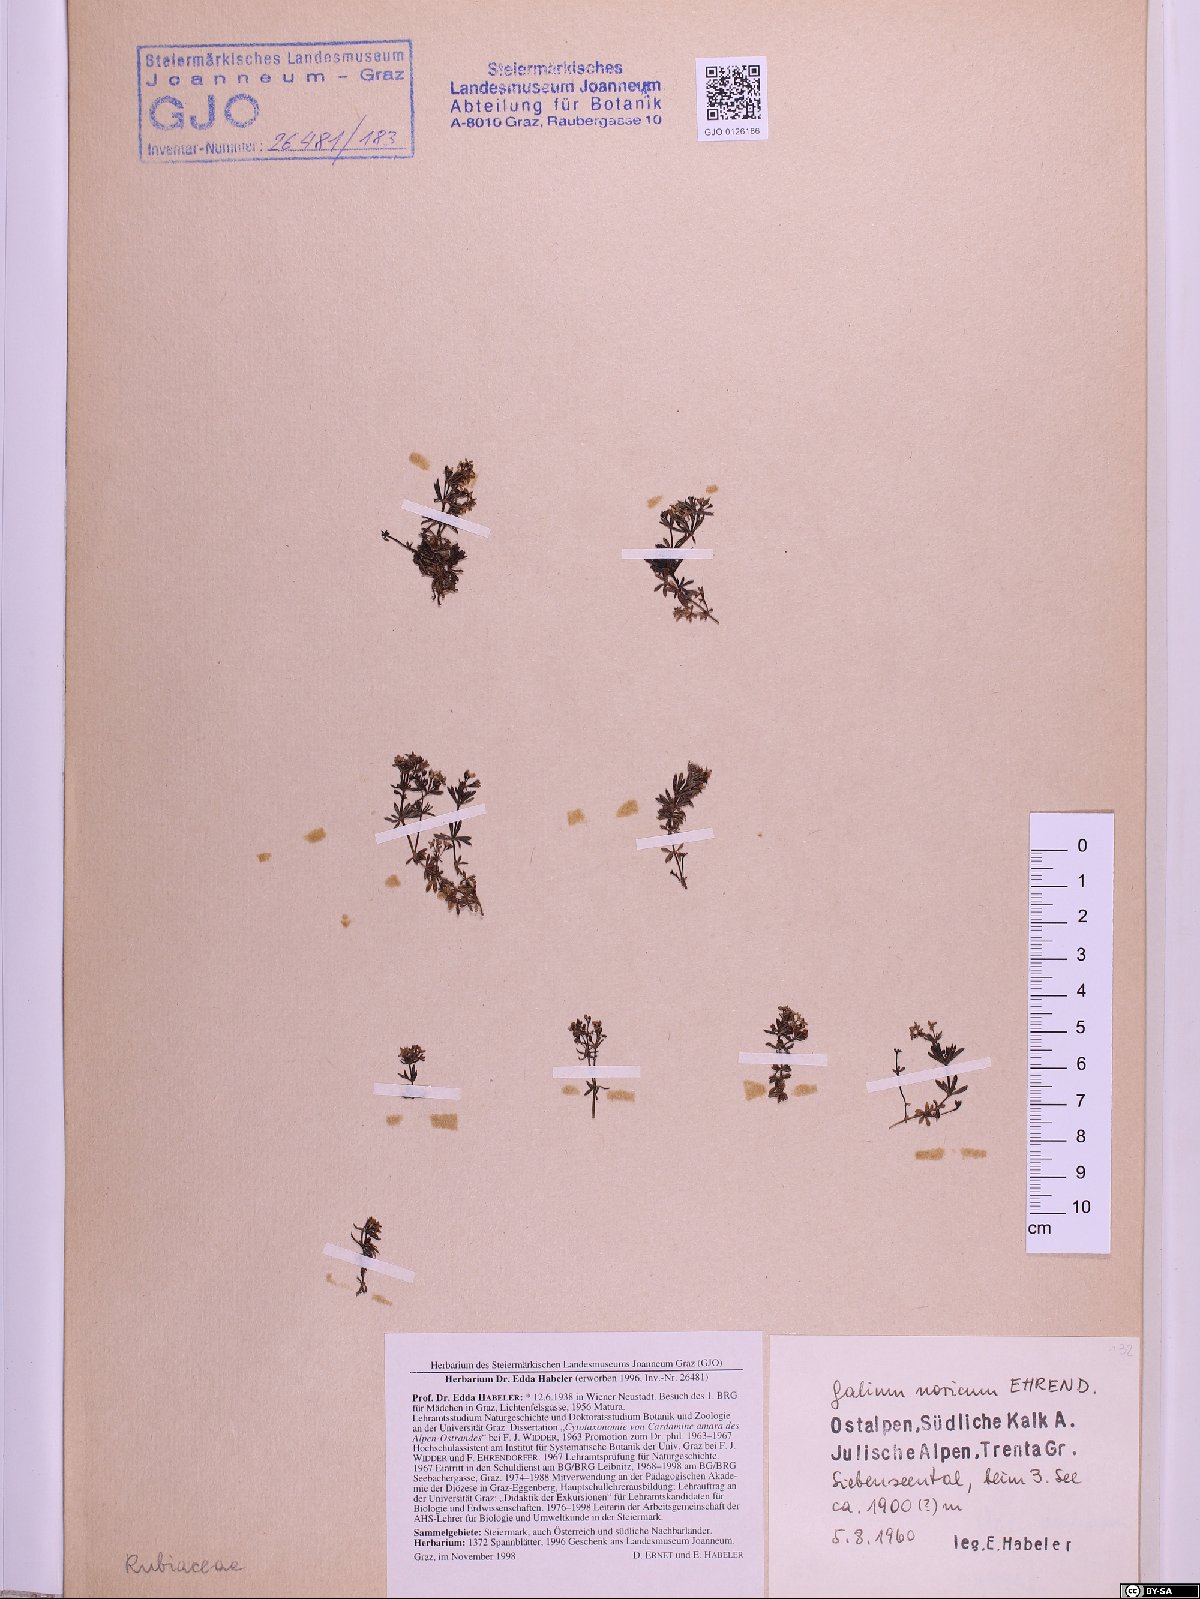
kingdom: Plantae
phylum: Tracheophyta
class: Magnoliopsida
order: Gentianales
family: Rubiaceae
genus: Galium
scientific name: Galium noricum
